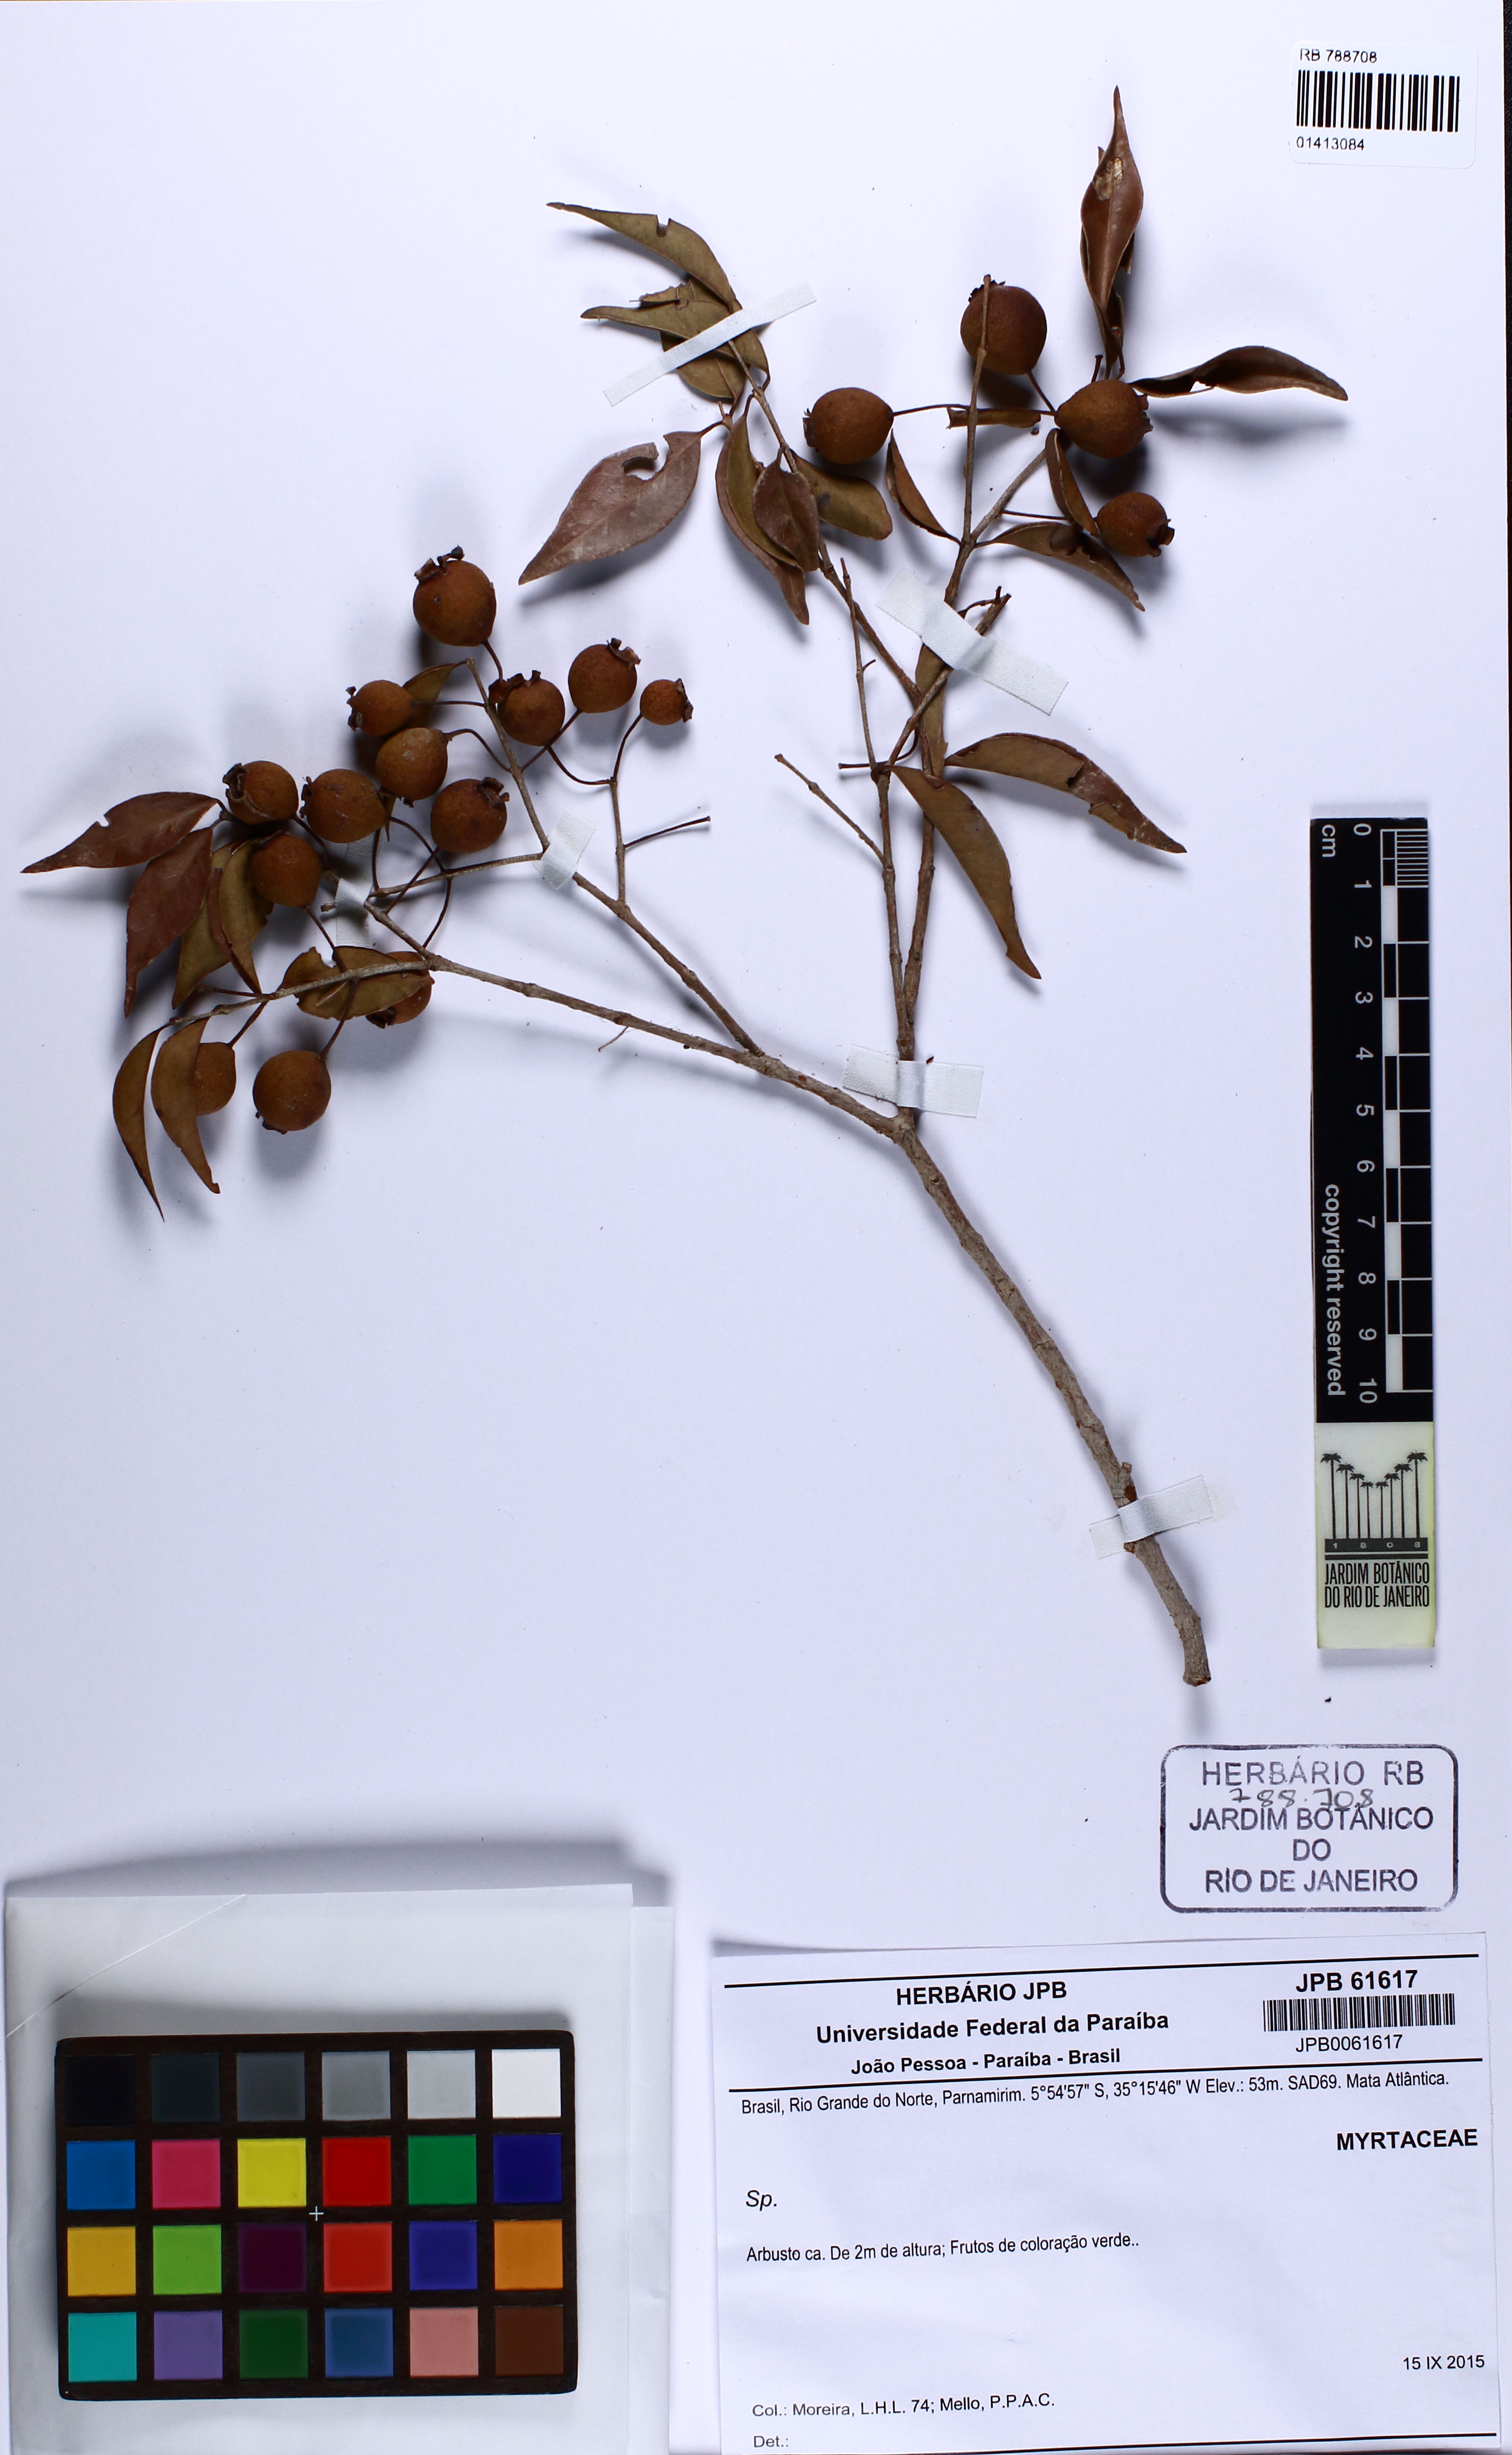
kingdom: Plantae
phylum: Tracheophyta
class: Magnoliopsida
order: Myrtales
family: Myrtaceae
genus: Psidium
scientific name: Psidium oligospermum
